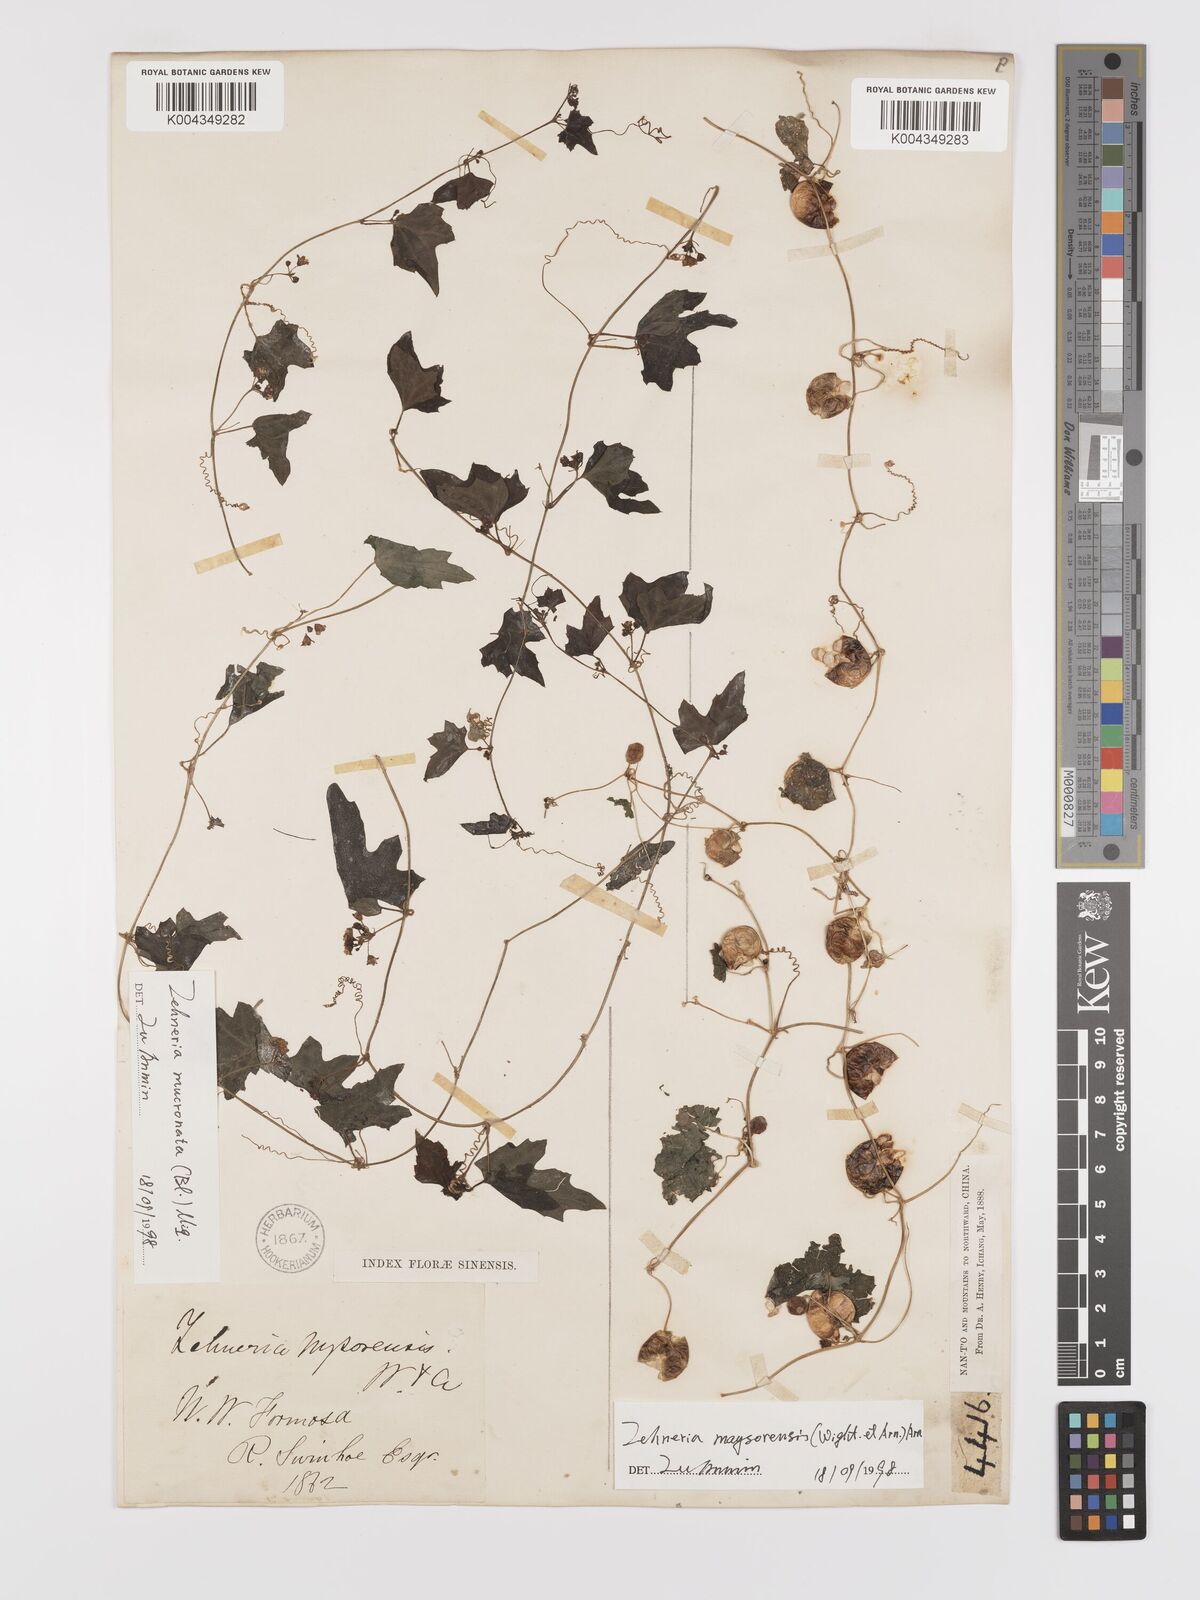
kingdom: Plantae
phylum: Tracheophyta
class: Magnoliopsida
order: Cucurbitales
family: Cucurbitaceae
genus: Zehneria
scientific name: Zehneria mucronata
